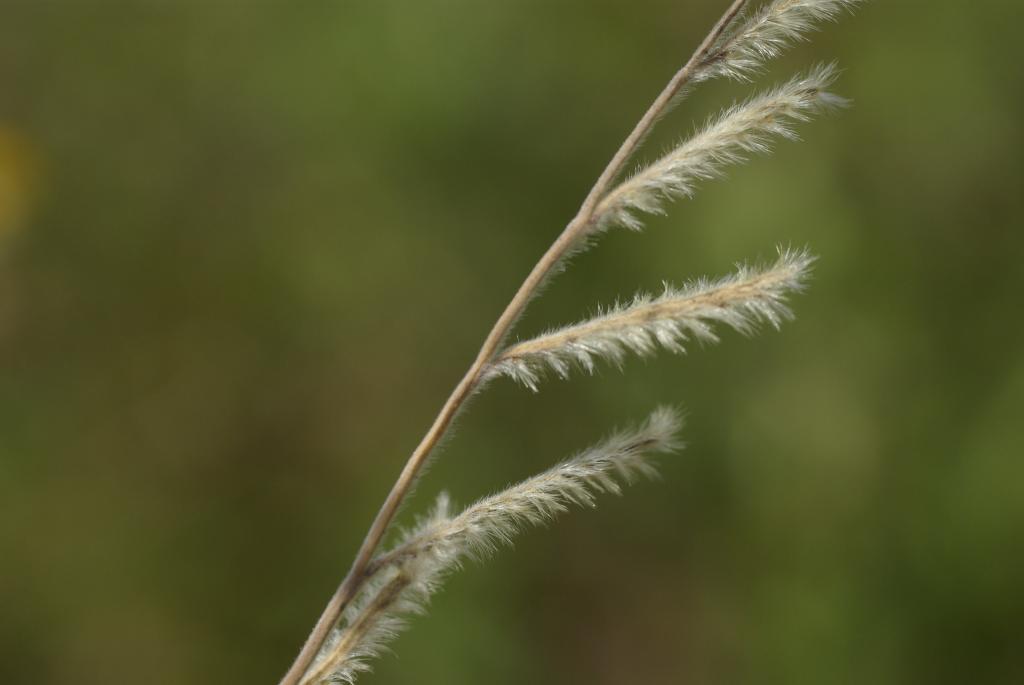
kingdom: Plantae
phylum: Tracheophyta
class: Liliopsida
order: Poales
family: Poaceae
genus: Eriochloa
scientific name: Eriochloa villosa
